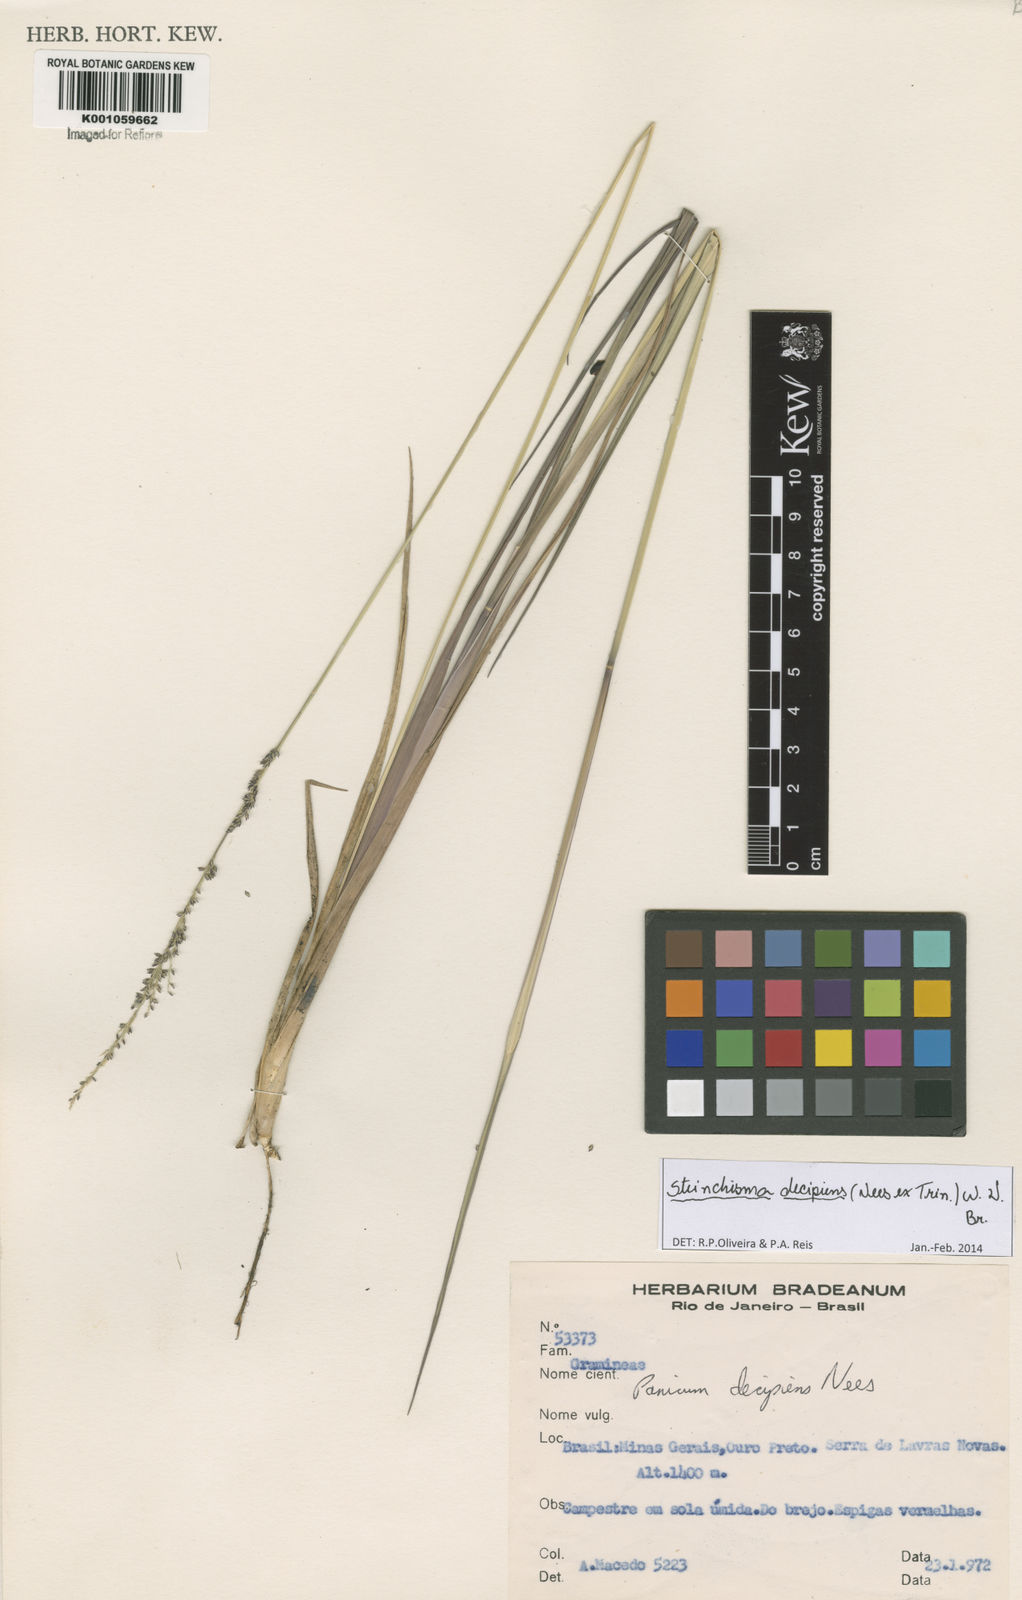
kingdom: Plantae
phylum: Tracheophyta
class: Liliopsida
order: Poales
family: Poaceae
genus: Steinchisma
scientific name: Steinchisma decipiens
